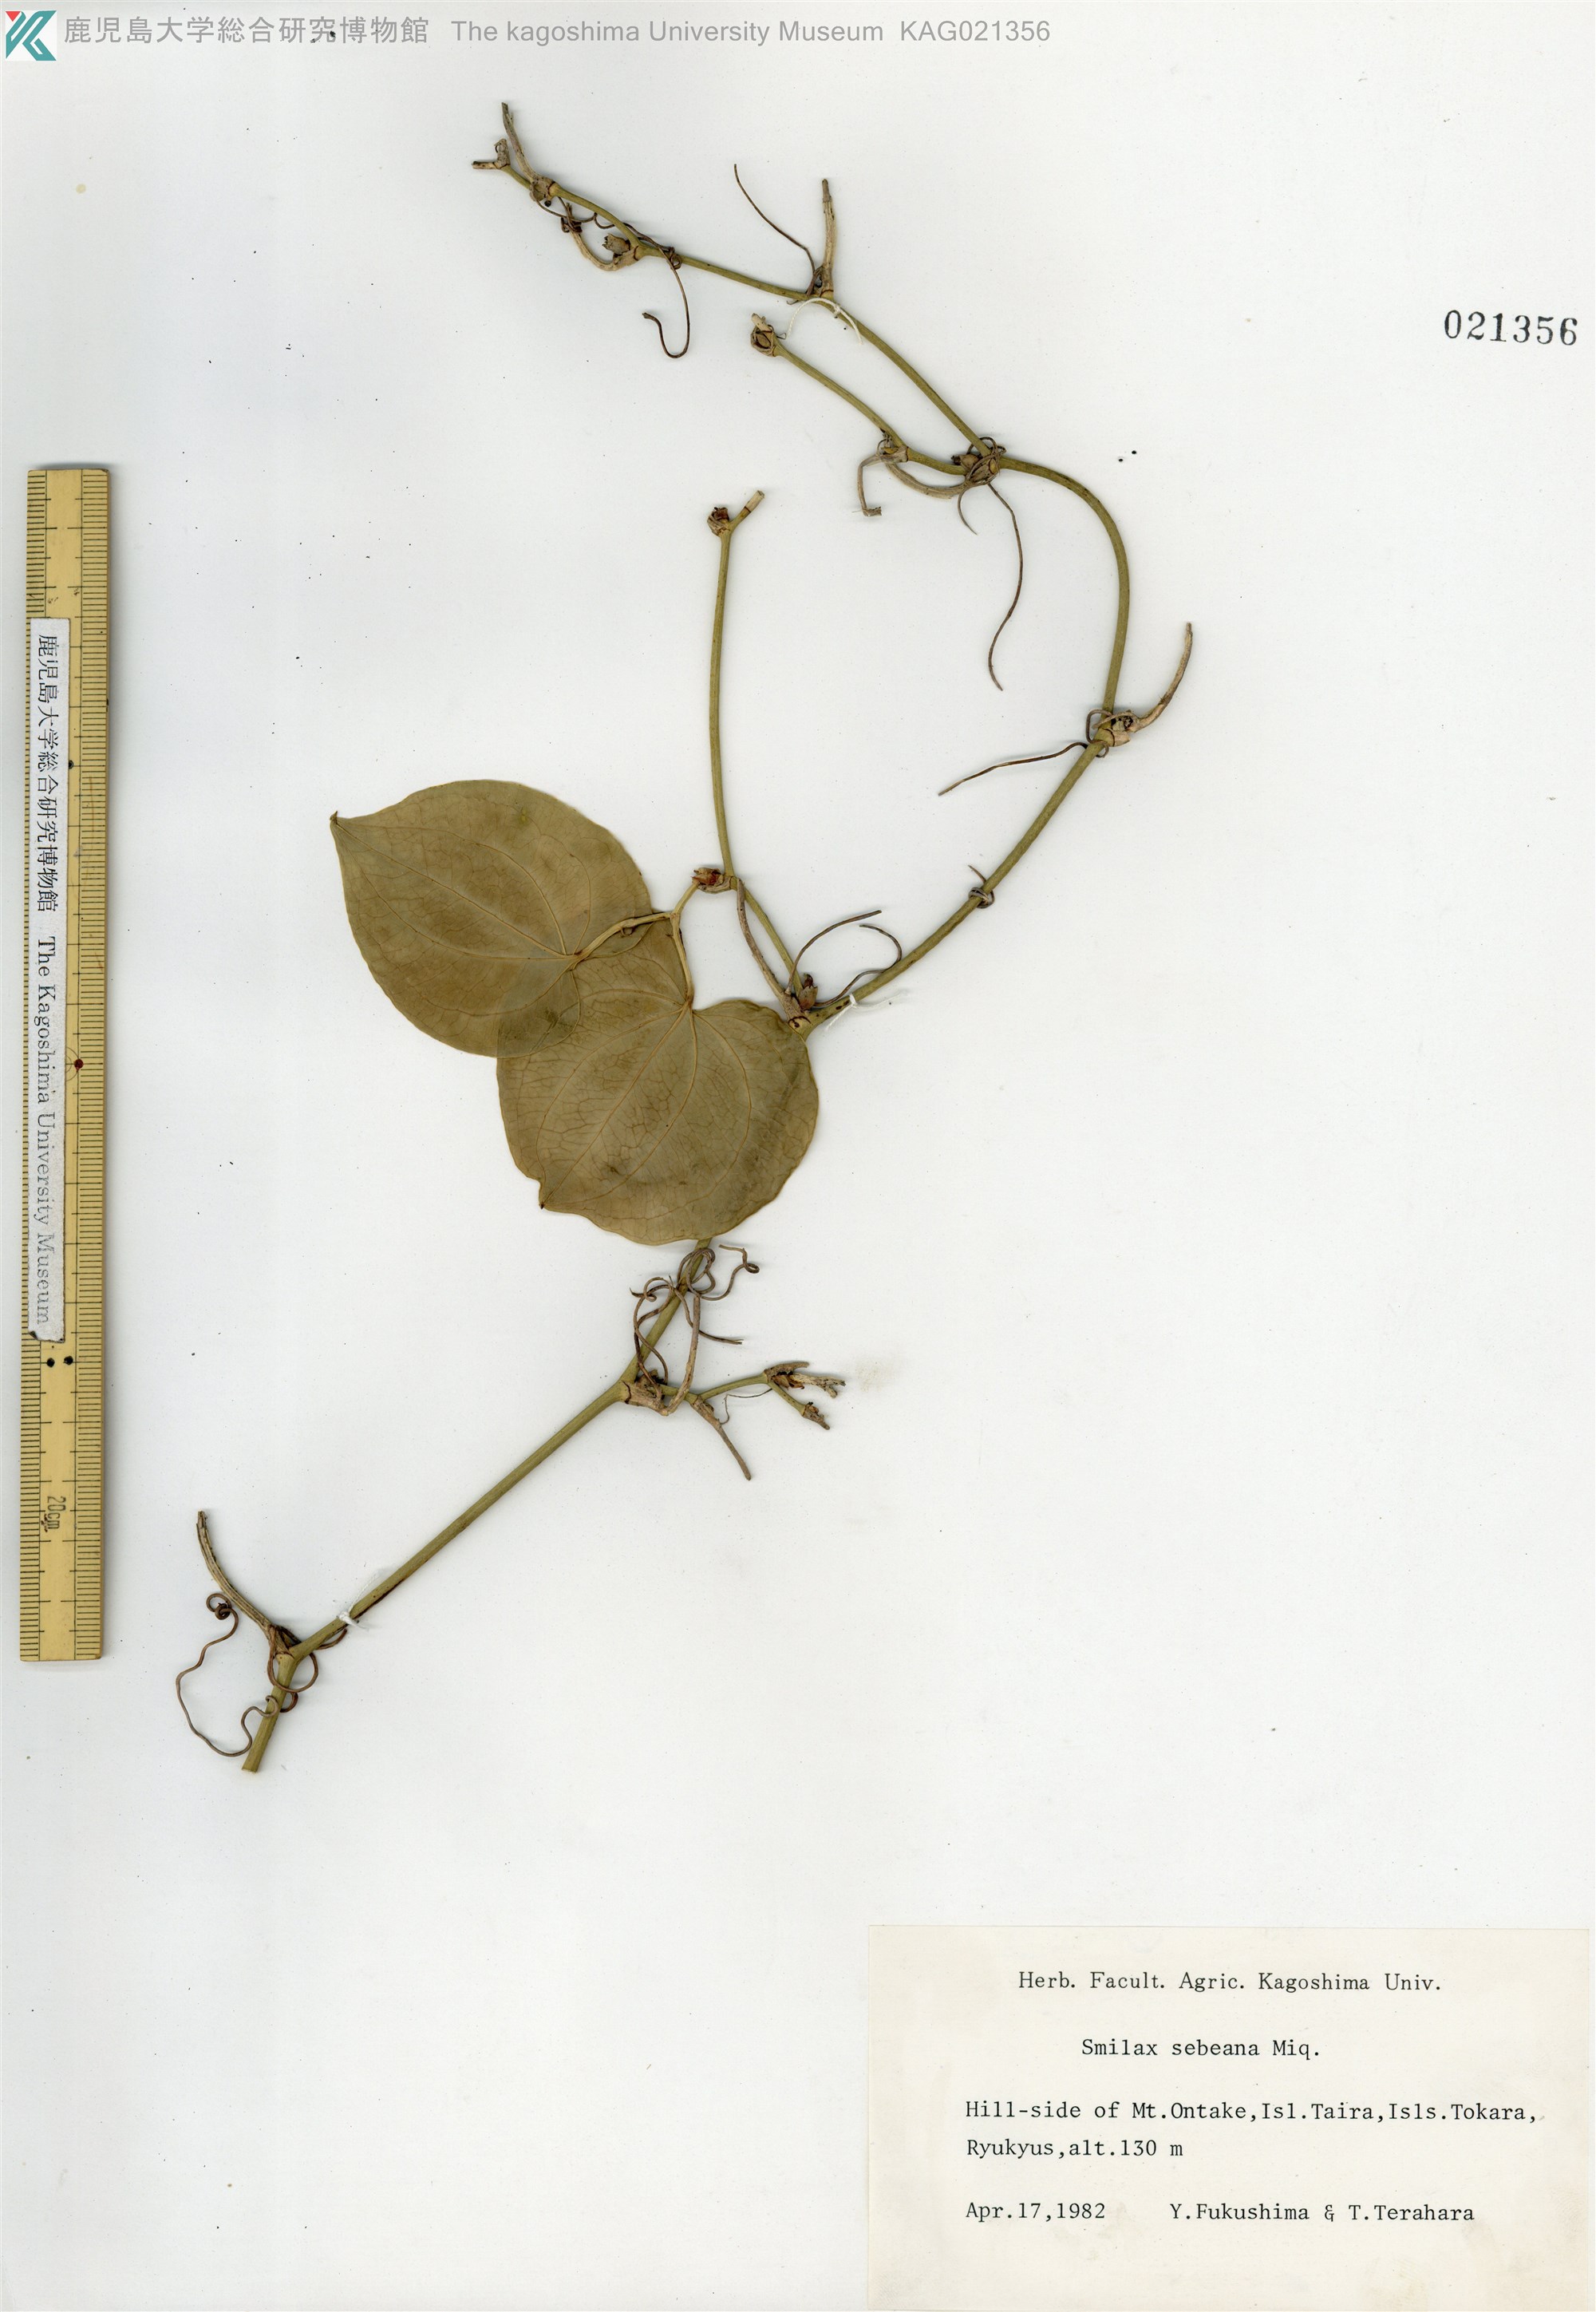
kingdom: Plantae
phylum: Tracheophyta
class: Liliopsida
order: Liliales
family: Smilacaceae
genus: Smilax
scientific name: Smilax sebeana
